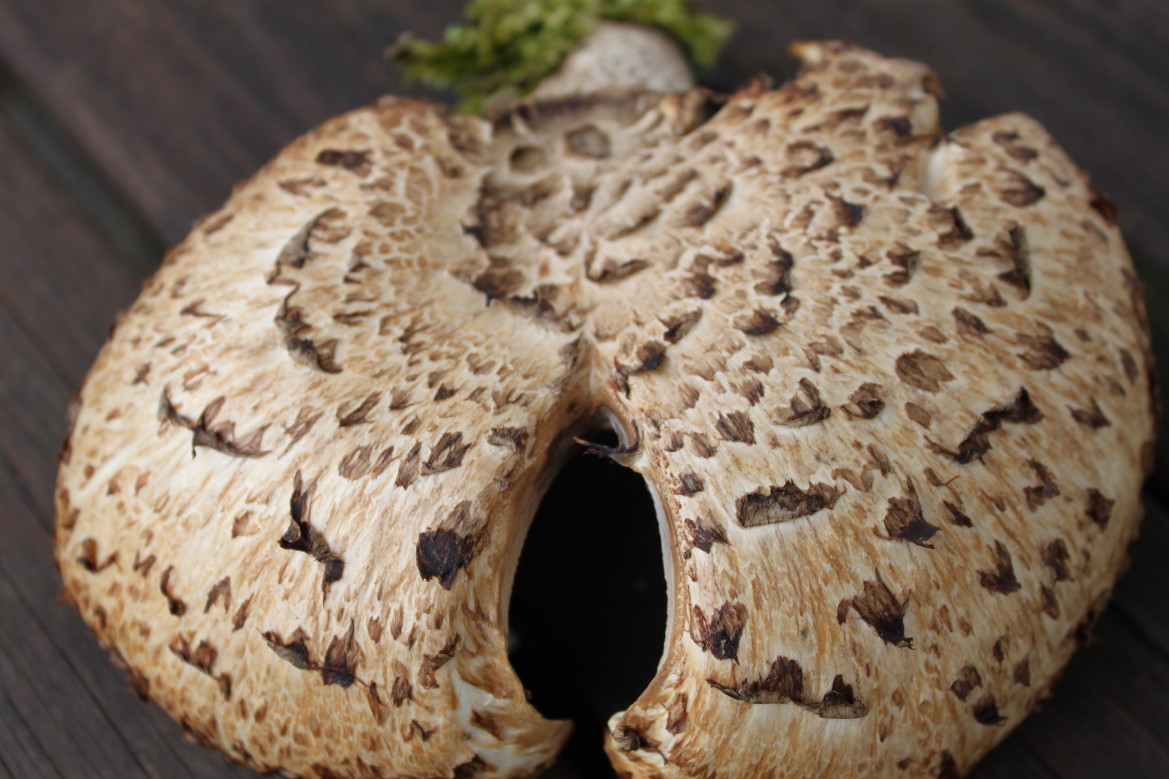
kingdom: Fungi
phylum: Basidiomycota
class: Agaricomycetes
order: Polyporales
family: Polyporaceae
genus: Cerioporus
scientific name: Cerioporus squamosus
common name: skællet stilkporesvamp
